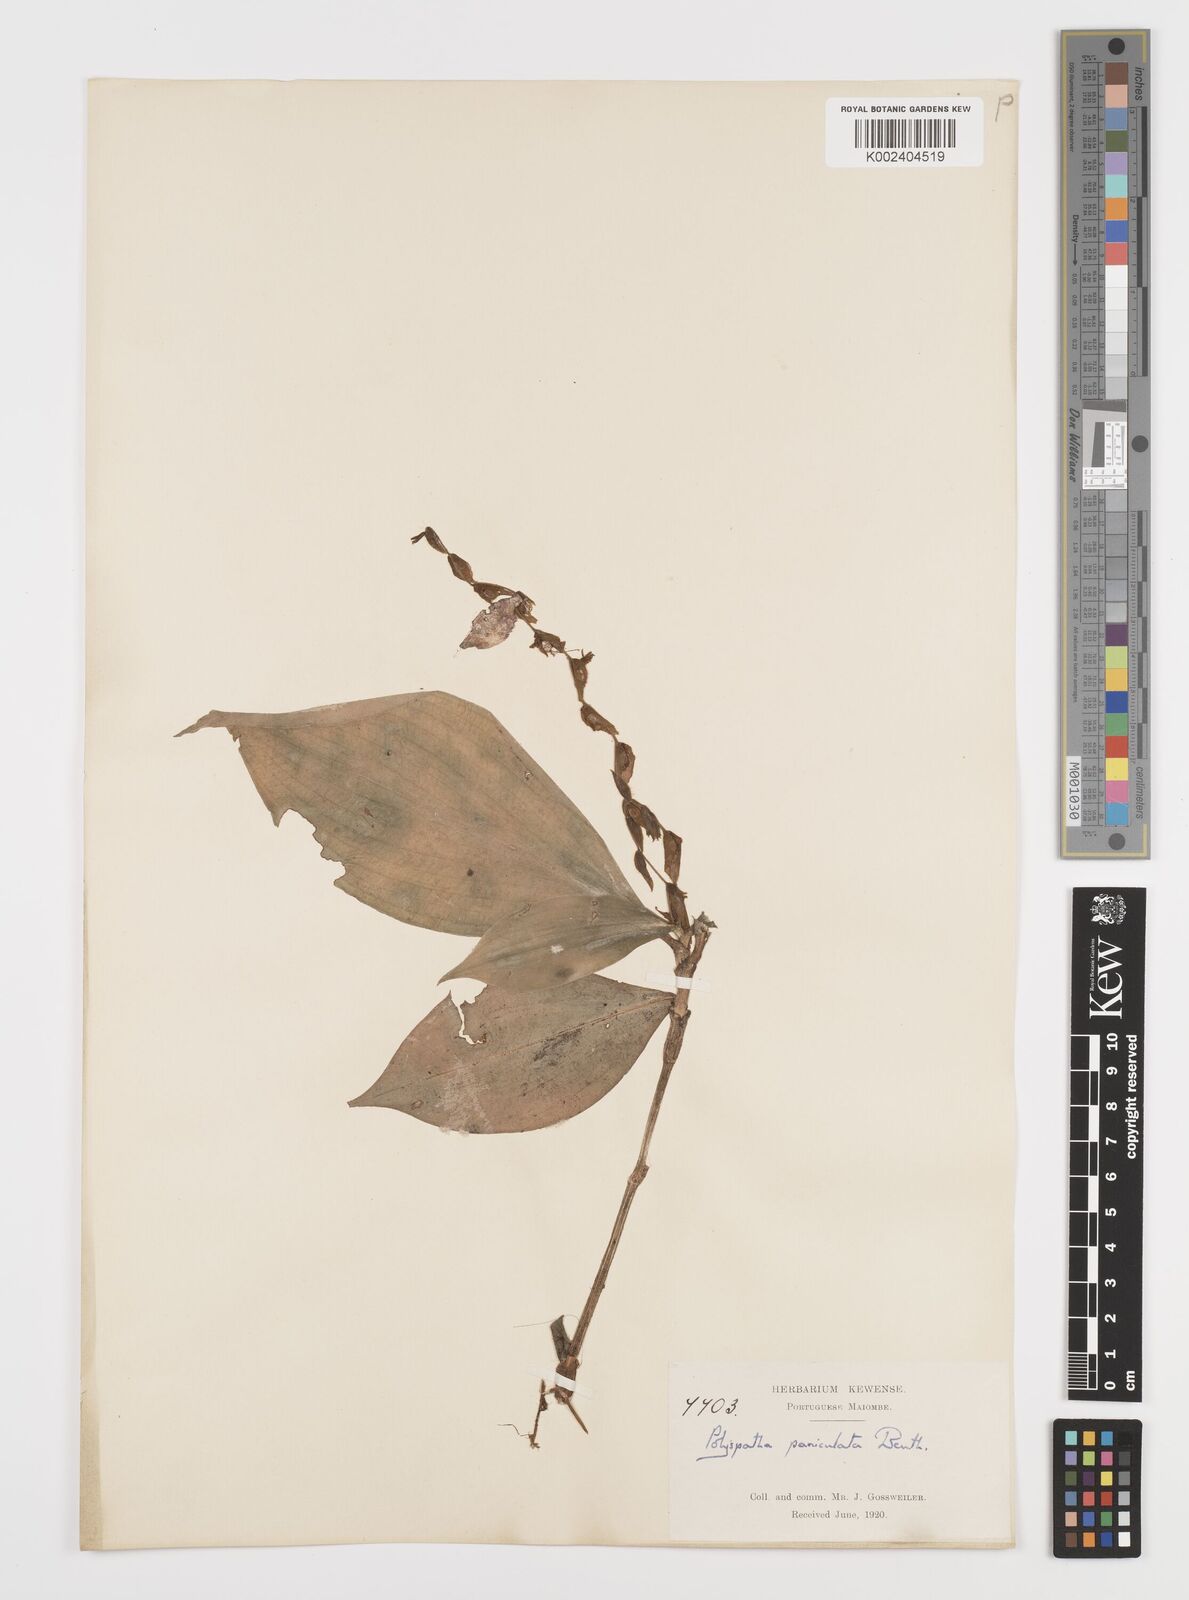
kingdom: Plantae
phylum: Tracheophyta
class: Liliopsida
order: Commelinales
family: Commelinaceae
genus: Polyspatha
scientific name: Polyspatha paniculata
